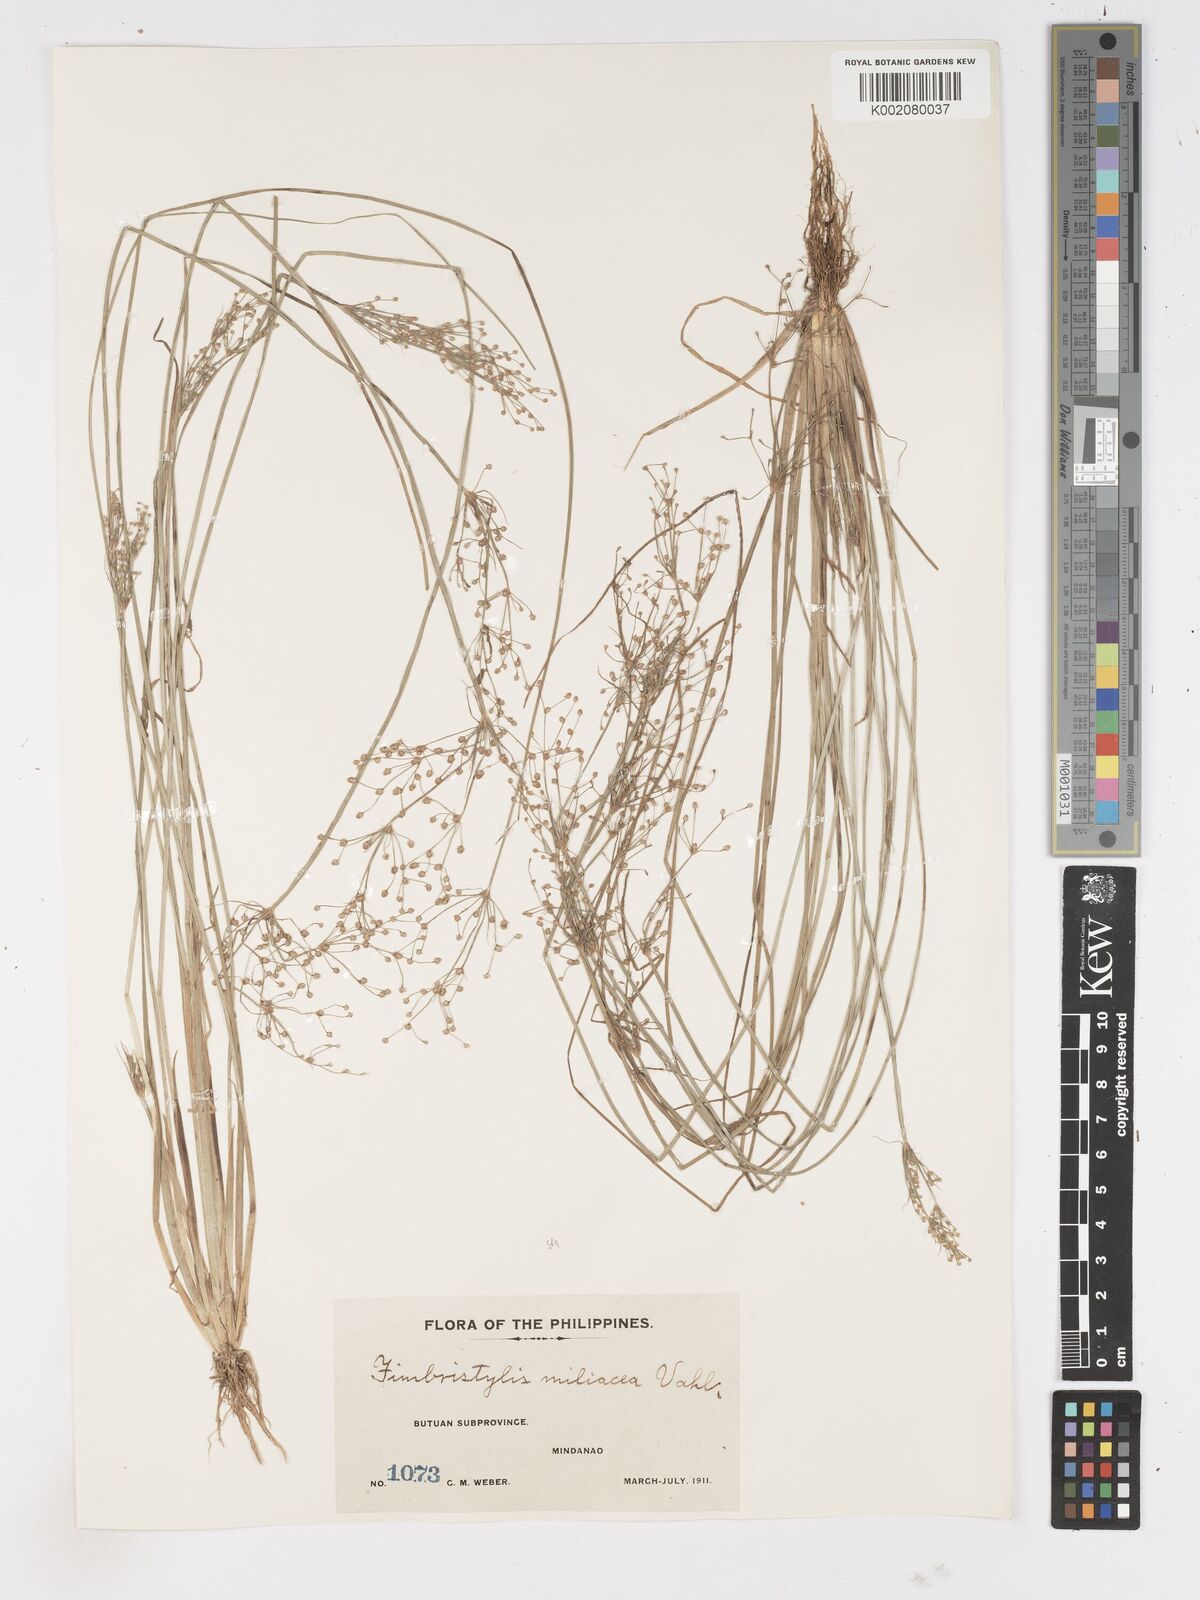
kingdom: Plantae
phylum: Tracheophyta
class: Liliopsida
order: Poales
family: Cyperaceae
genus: Fimbristylis
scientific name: Fimbristylis littoralis
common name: Fimbry
